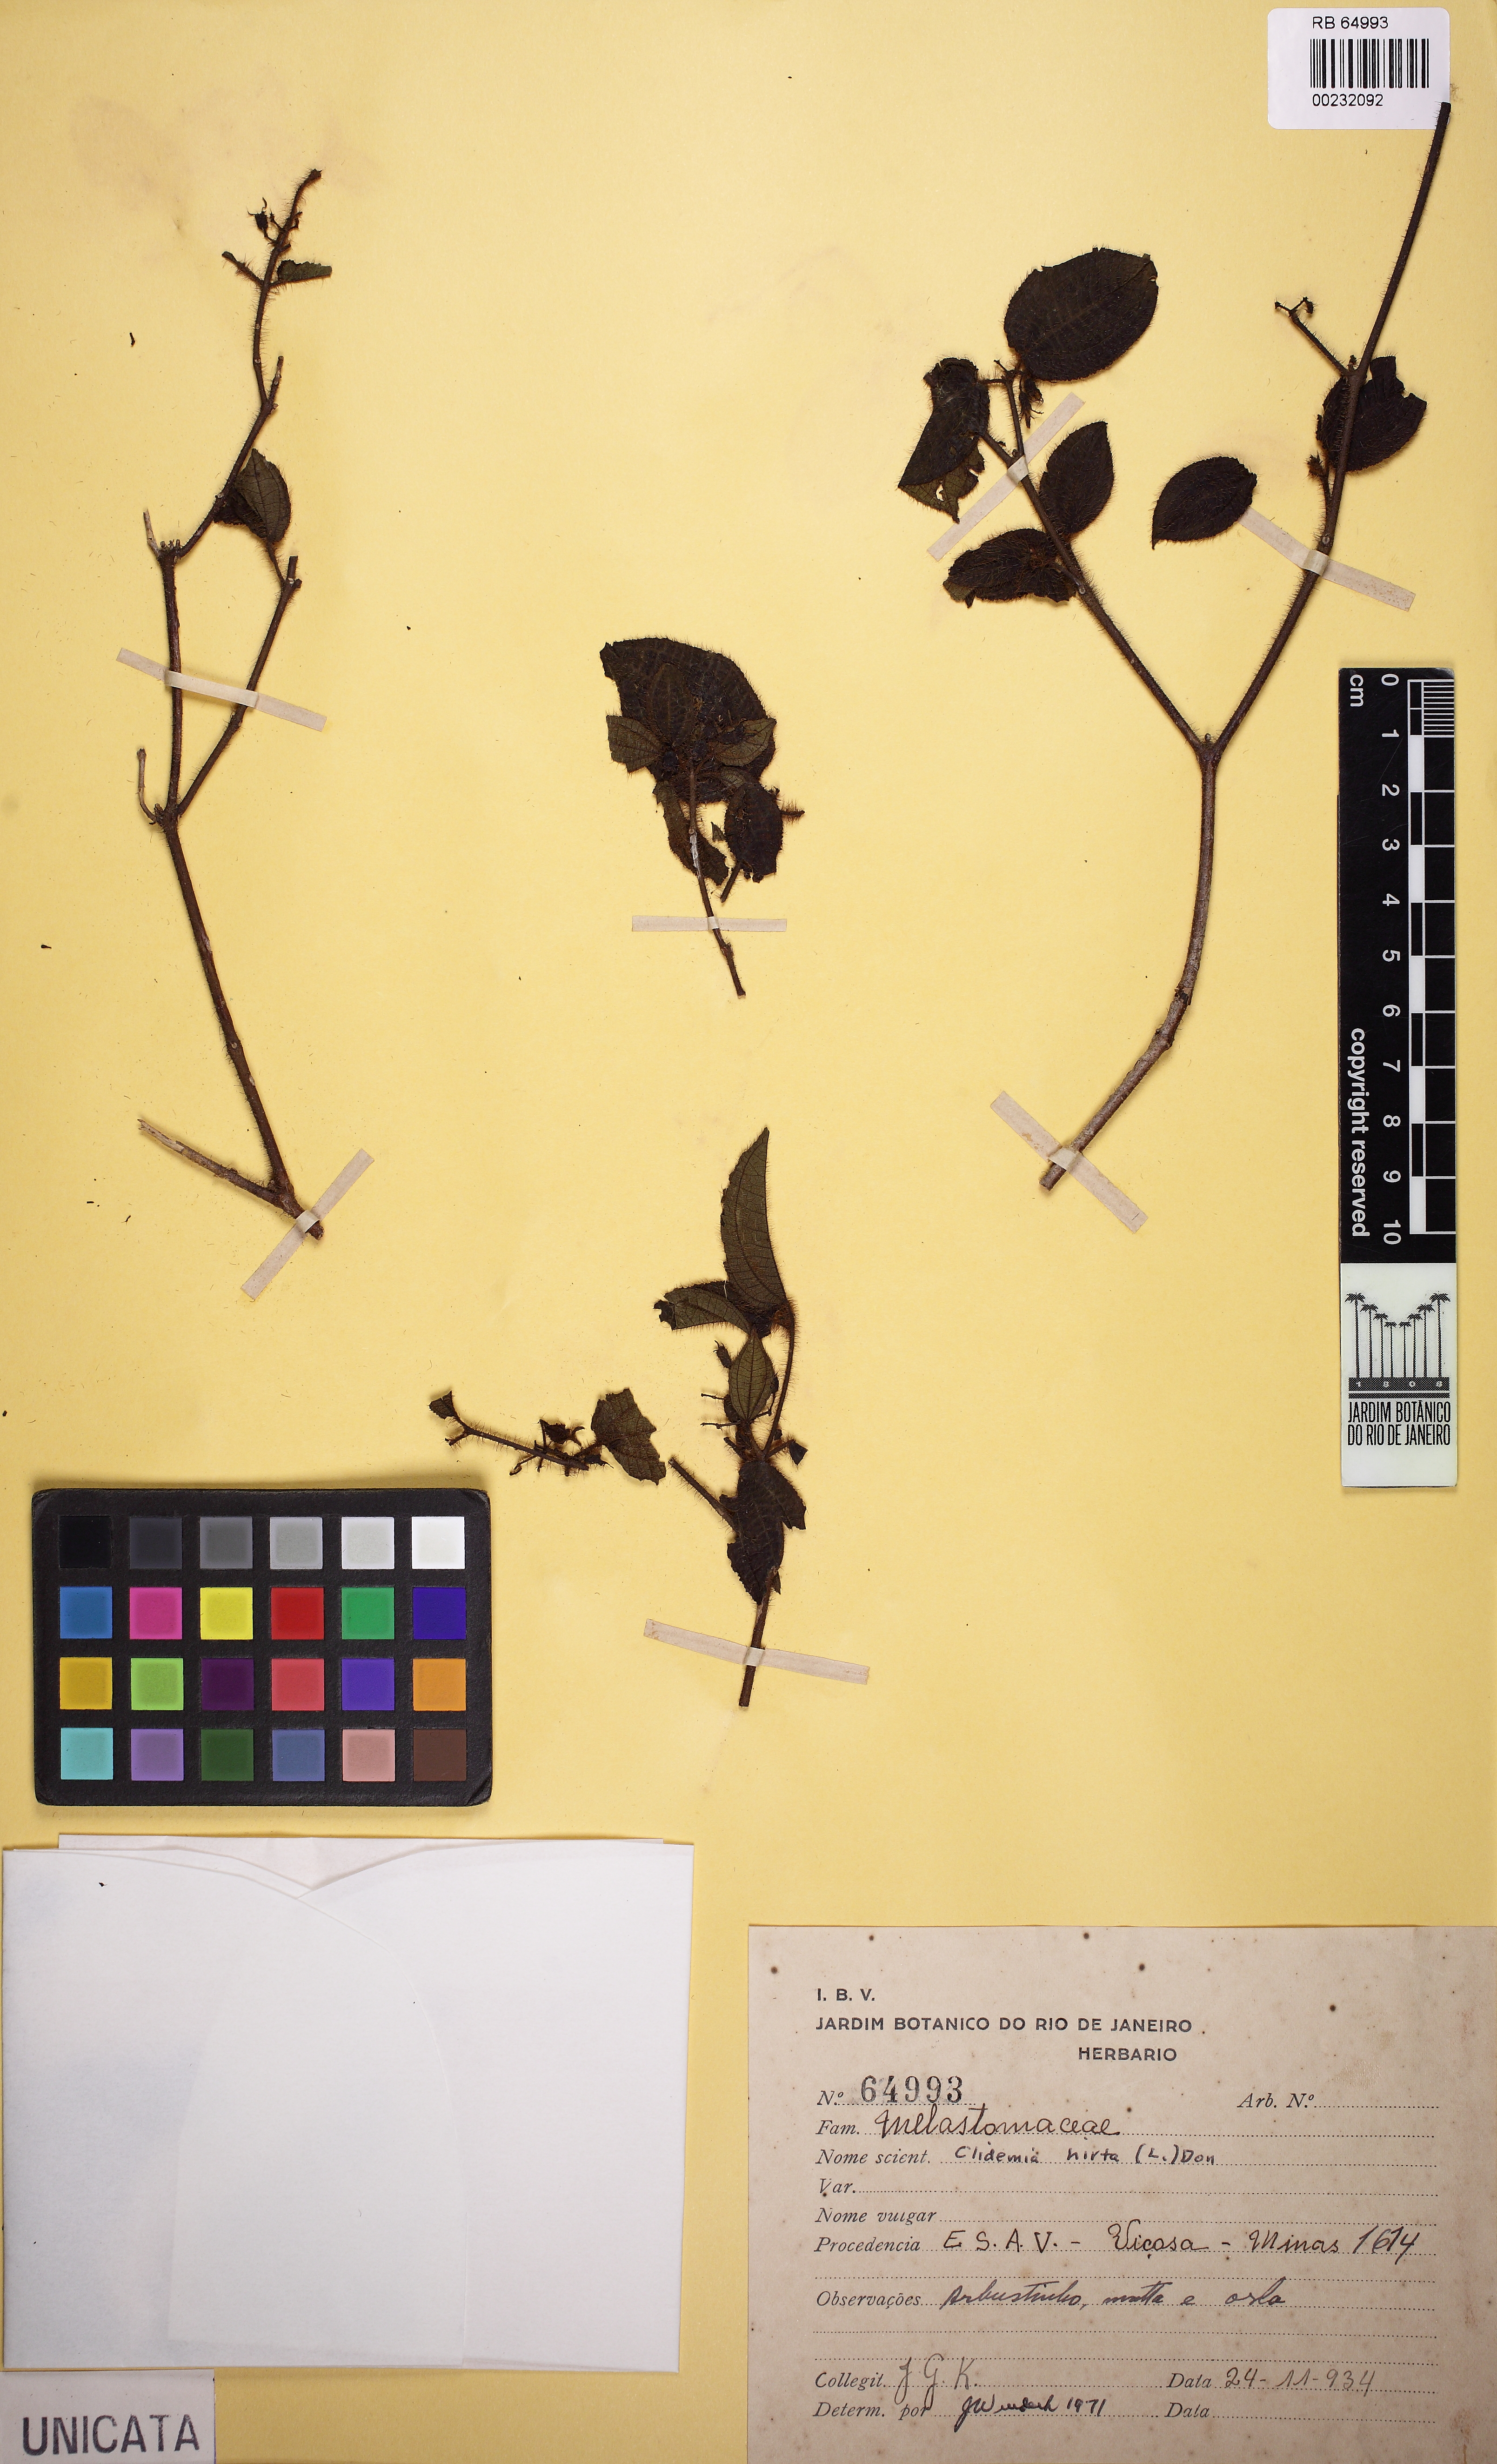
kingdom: Plantae
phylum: Tracheophyta
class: Magnoliopsida
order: Myrtales
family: Melastomataceae
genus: Miconia
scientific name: Miconia crenata
